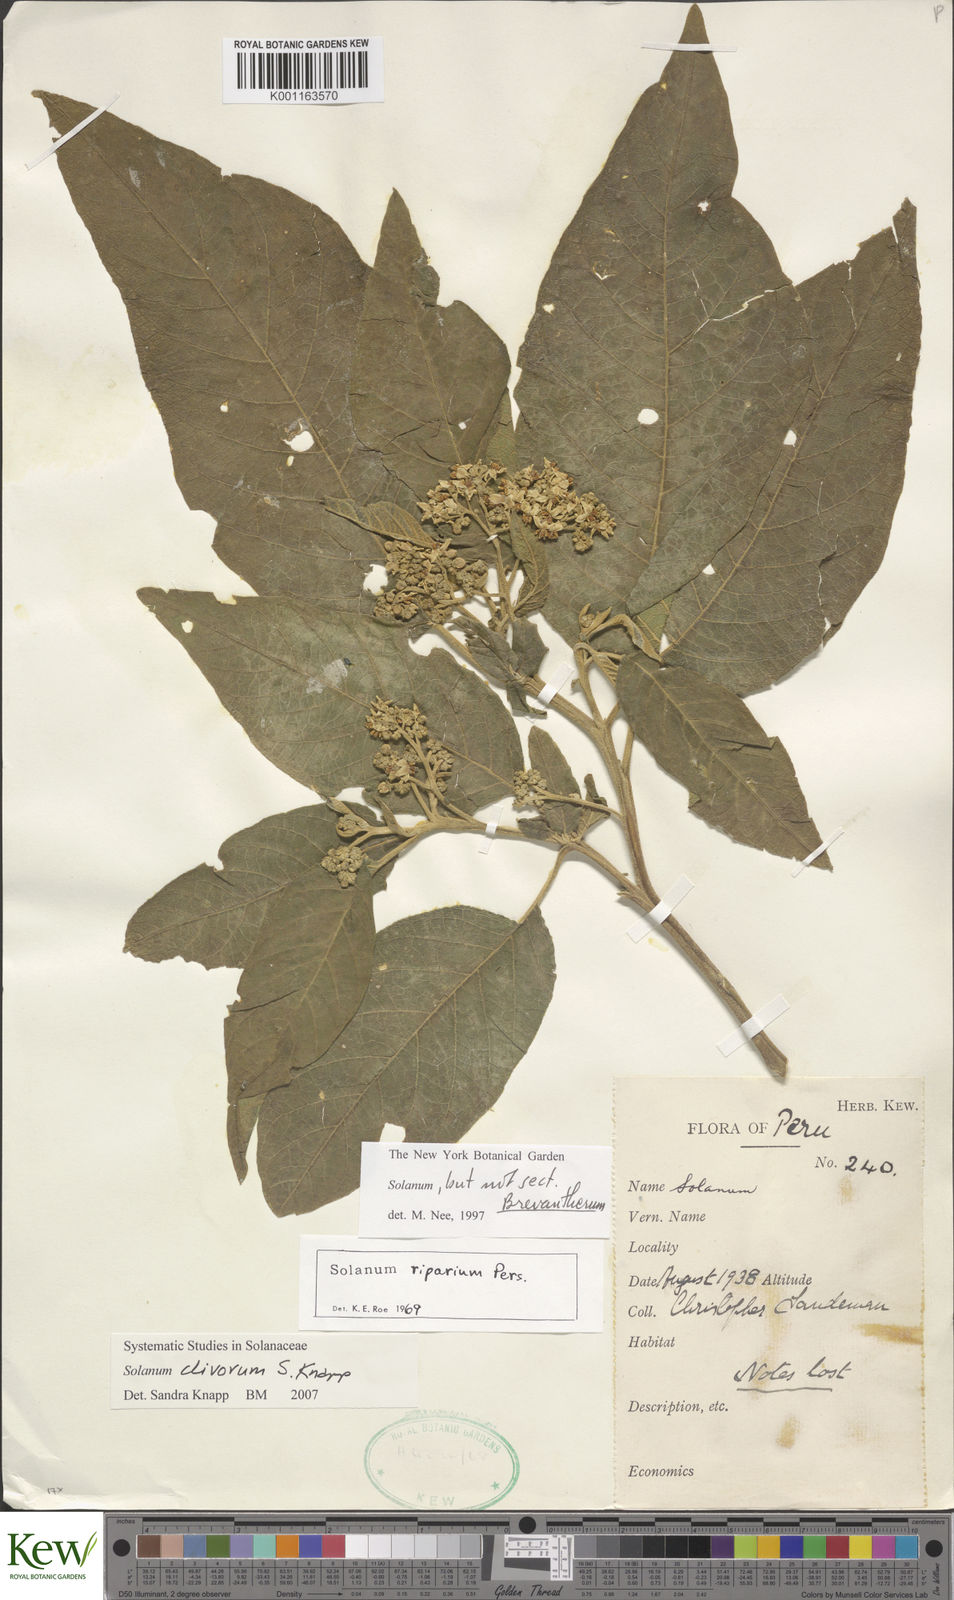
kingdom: Plantae
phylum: Tracheophyta
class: Magnoliopsida
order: Solanales
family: Solanaceae
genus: Solanum
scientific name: Solanum clivorum
